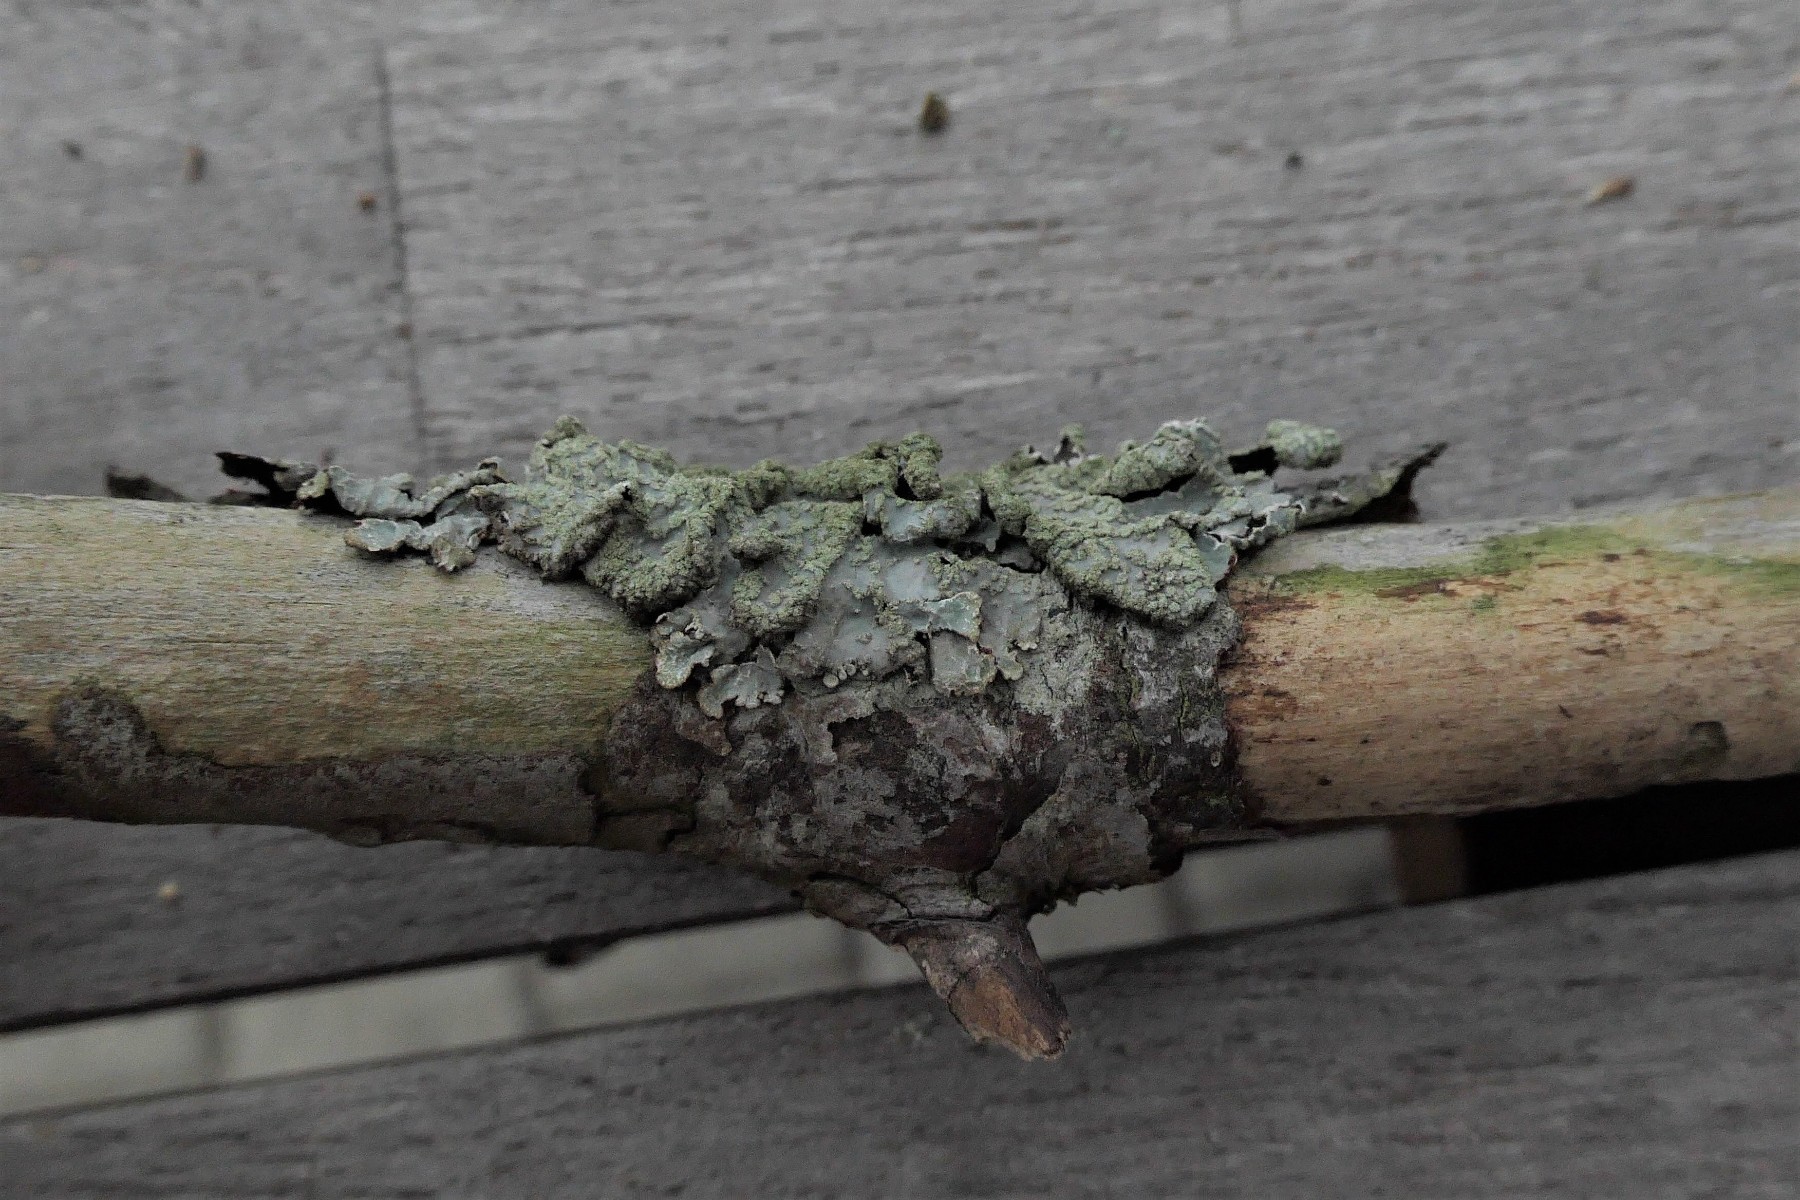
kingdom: Fungi
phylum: Ascomycota
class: Lecanoromycetes
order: Lecanorales
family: Parmeliaceae
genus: Parmelia
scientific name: Parmelia sulcata
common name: rynket skållav
